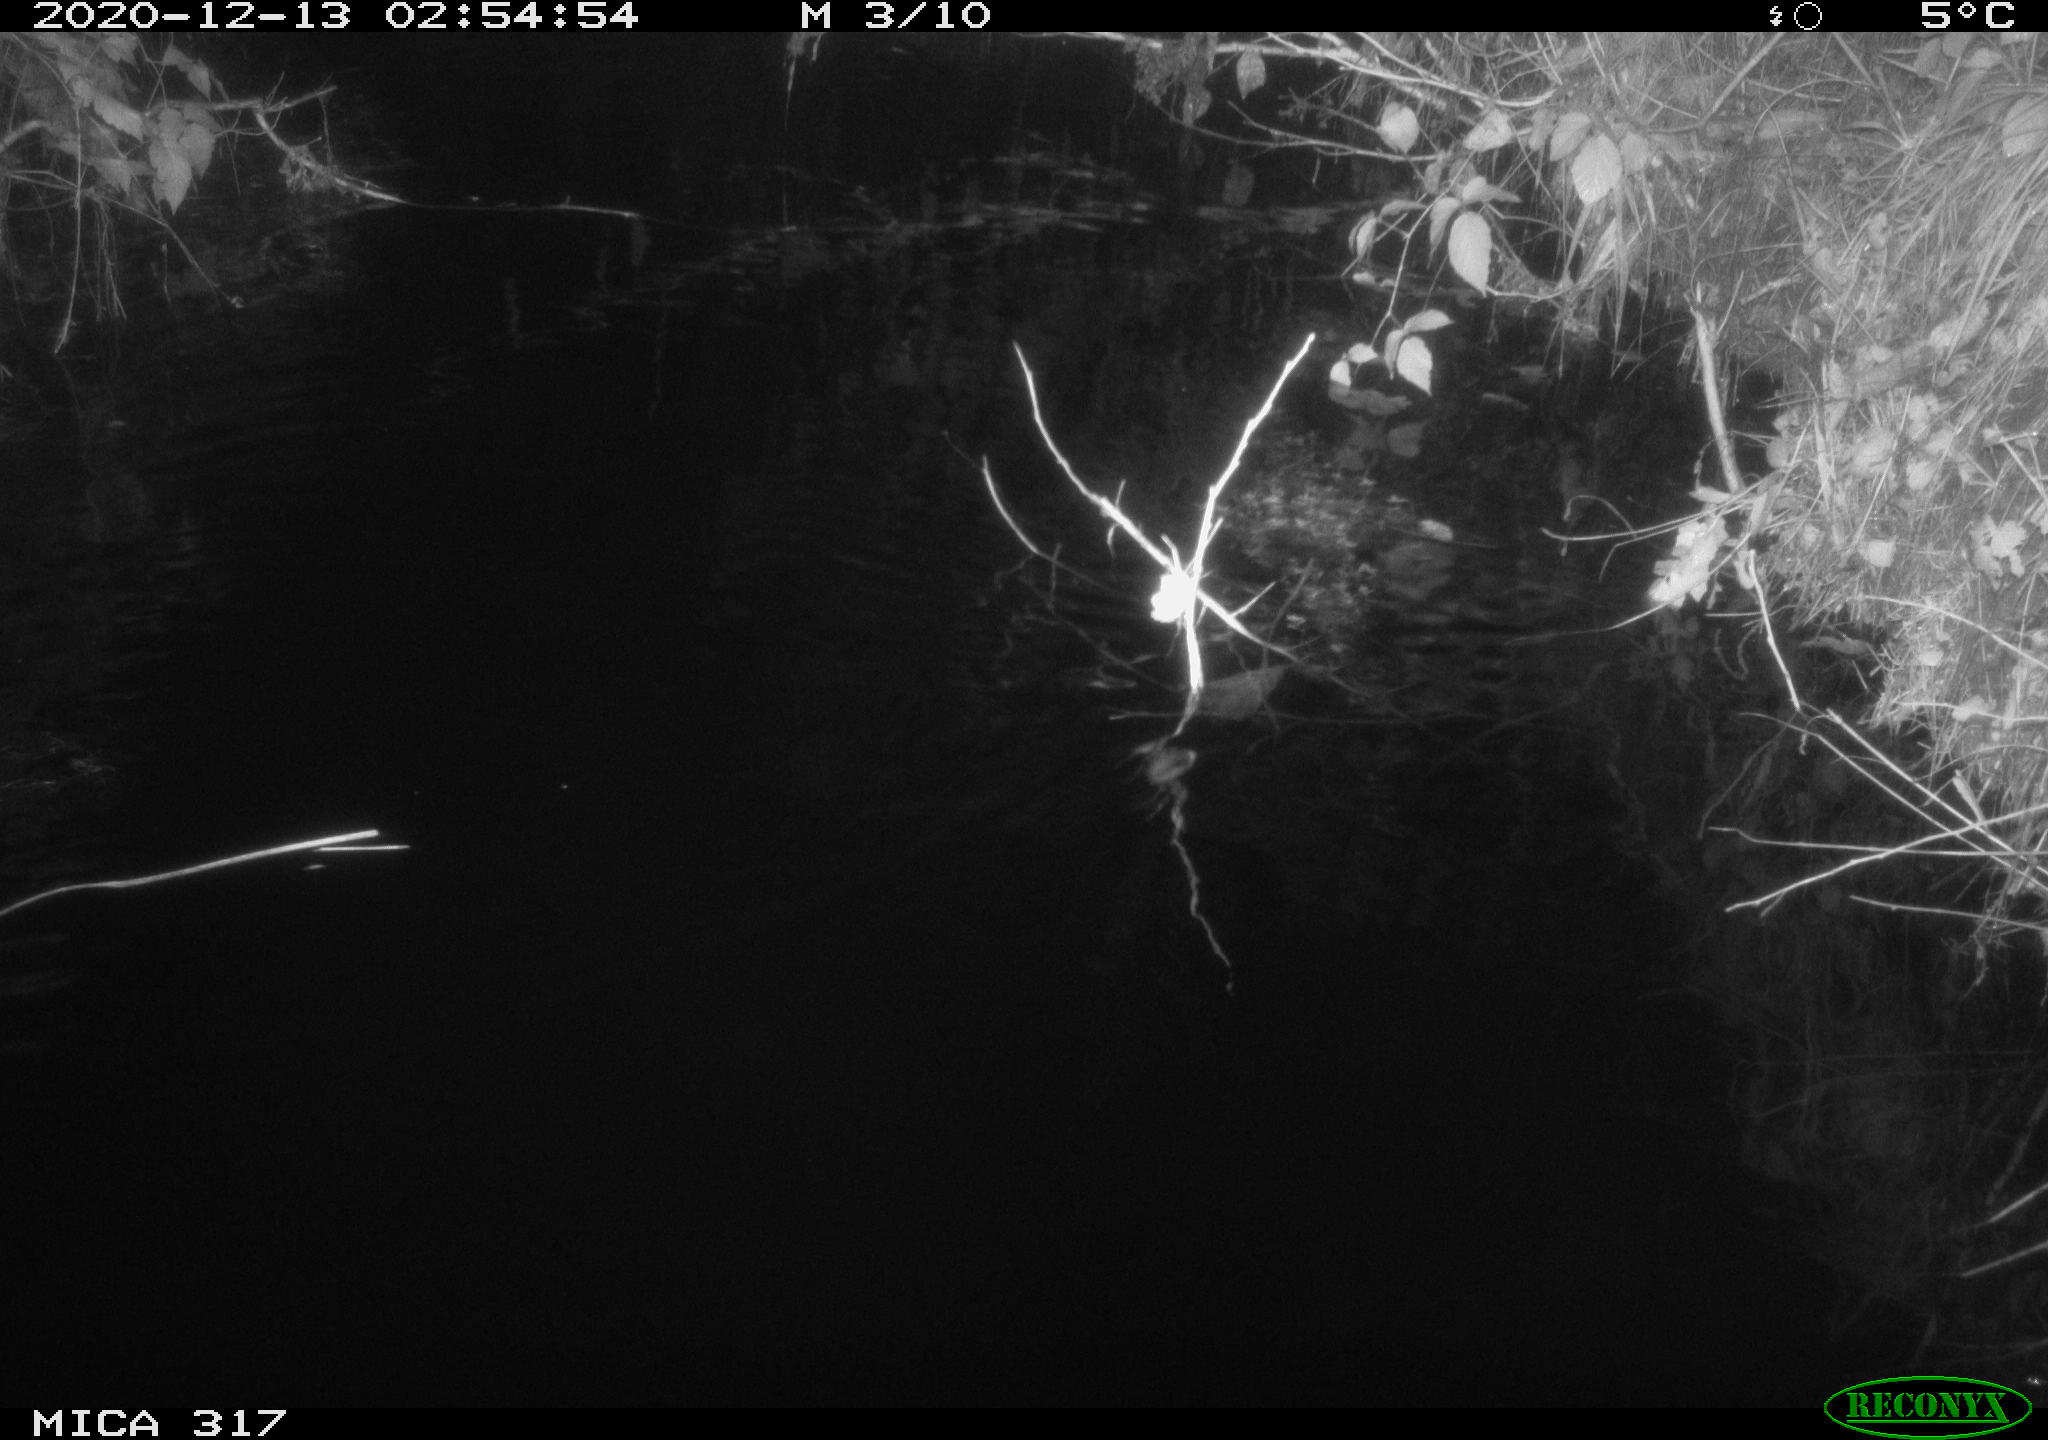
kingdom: Animalia
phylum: Chordata
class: Mammalia
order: Rodentia
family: Muridae
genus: Rattus
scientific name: Rattus norvegicus
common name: Brown rat
